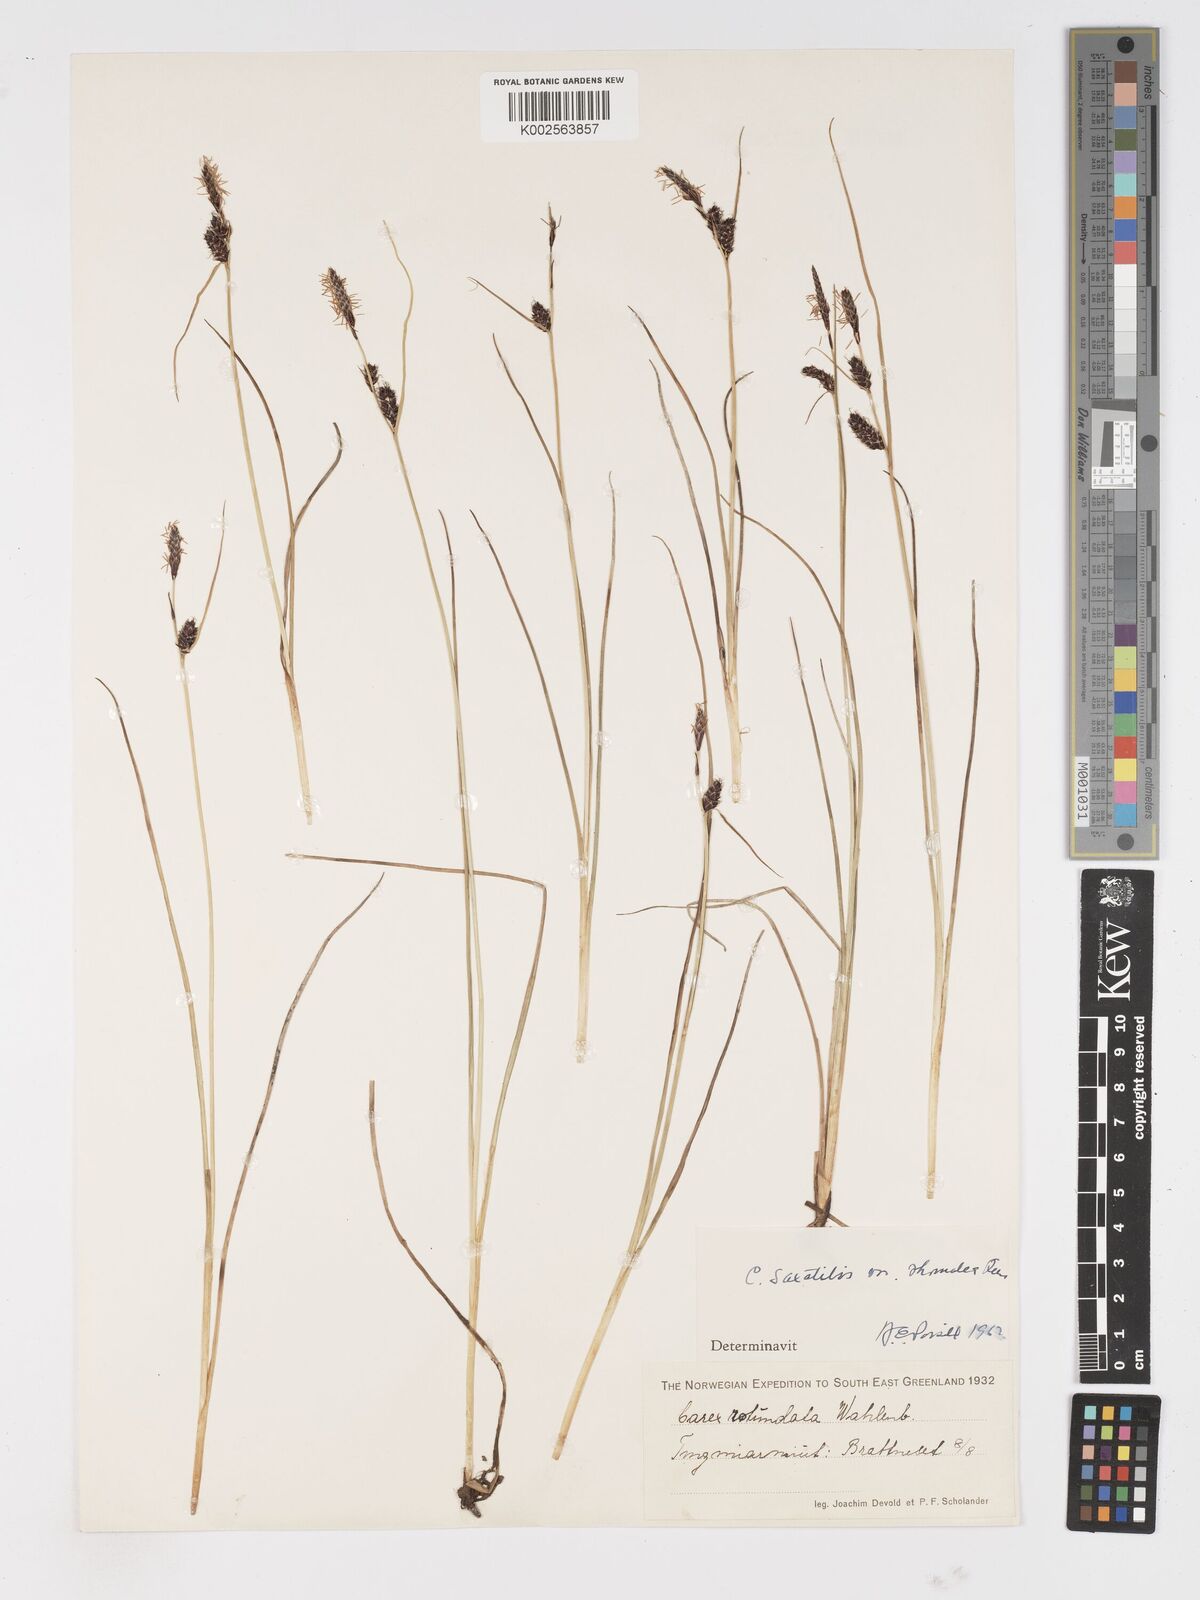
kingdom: Plantae
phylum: Tracheophyta
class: Liliopsida
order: Poales
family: Cyperaceae
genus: Carex
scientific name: Carex rotundata
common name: Round-fruited sedge
